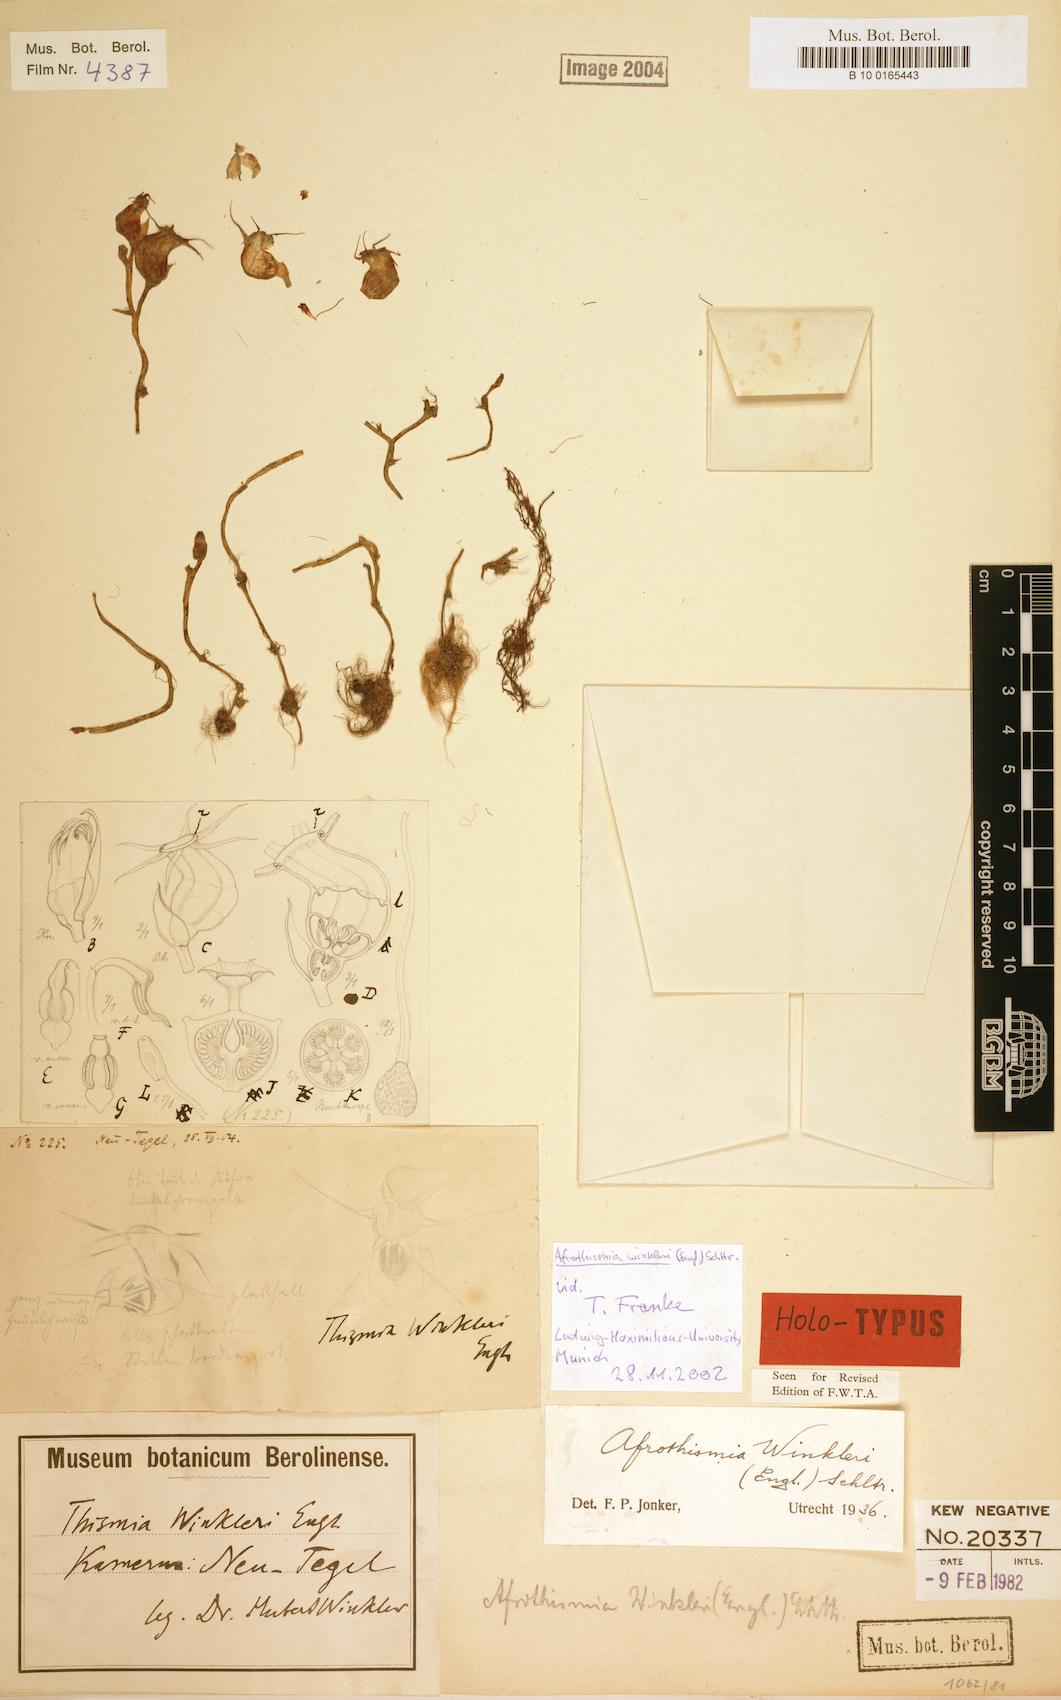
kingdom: Plantae
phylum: Tracheophyta
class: Liliopsida
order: Dioscoreales
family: Burmanniaceae
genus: Afrothismia
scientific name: Afrothismia winkleri
